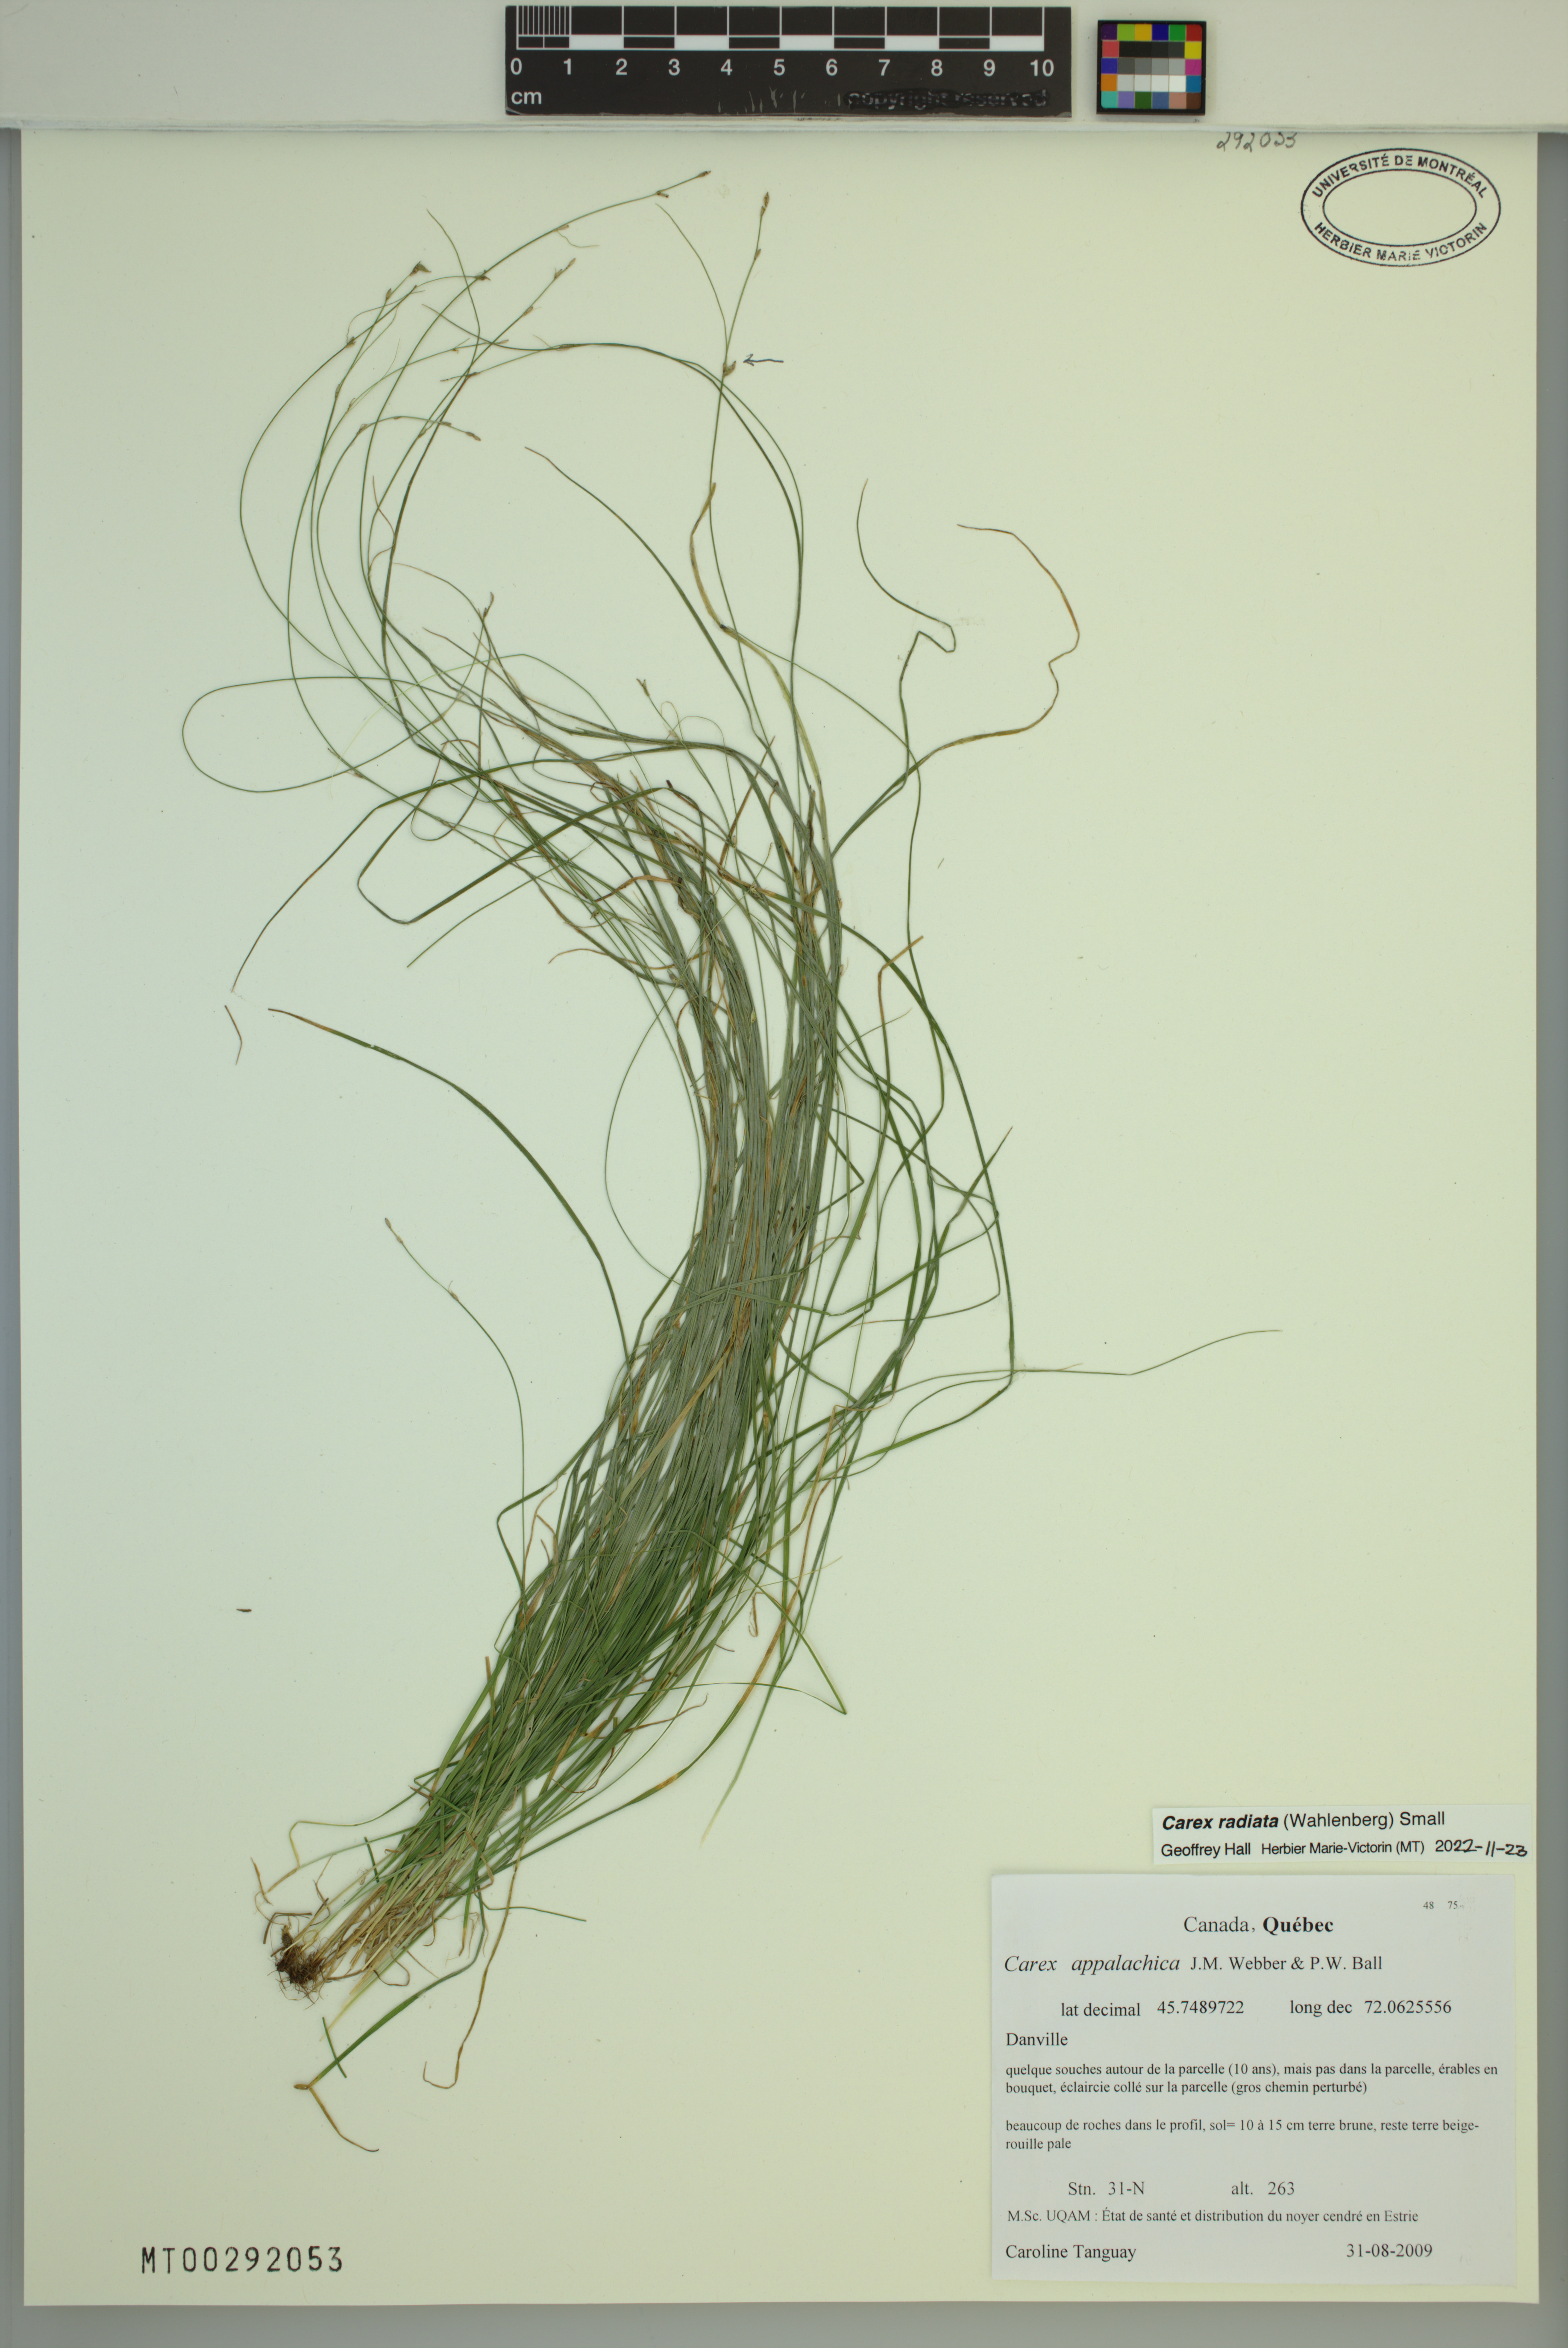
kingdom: Plantae
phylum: Tracheophyta
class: Liliopsida
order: Poales
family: Cyperaceae
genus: Carex
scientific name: Carex radiata
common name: Eastern star sedge
